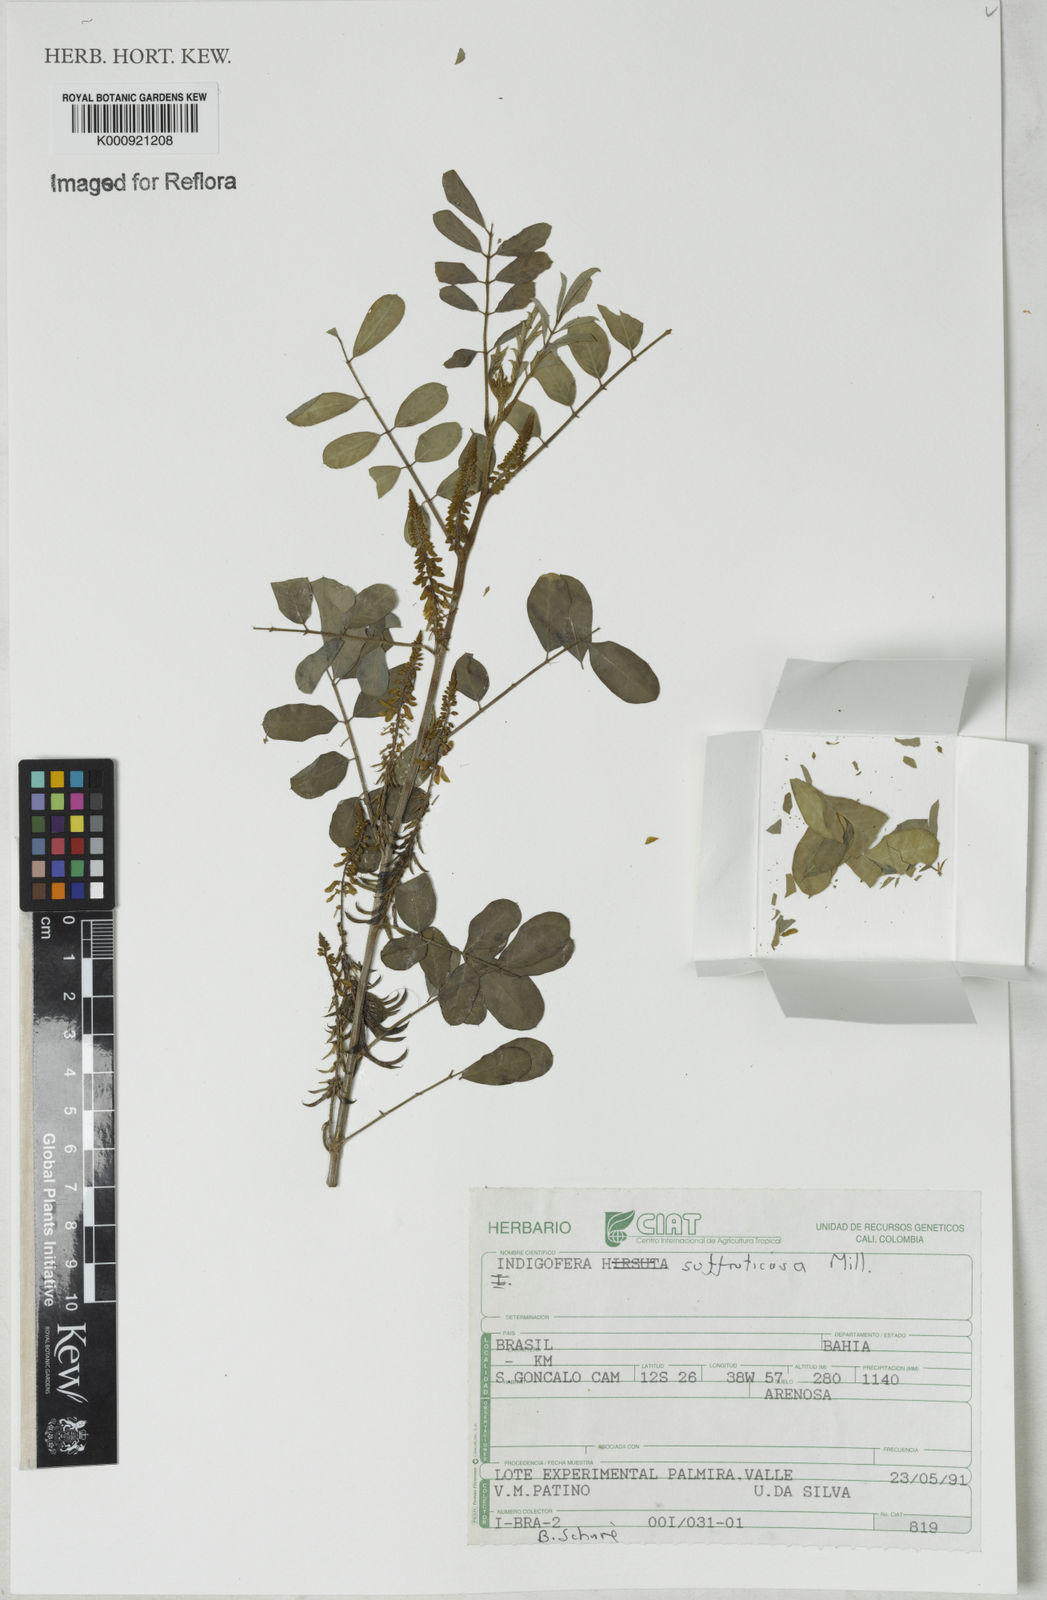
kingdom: Plantae
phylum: Tracheophyta
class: Magnoliopsida
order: Fabales
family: Fabaceae
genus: Indigofera
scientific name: Indigofera suffruticosa
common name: Anil de pasto
